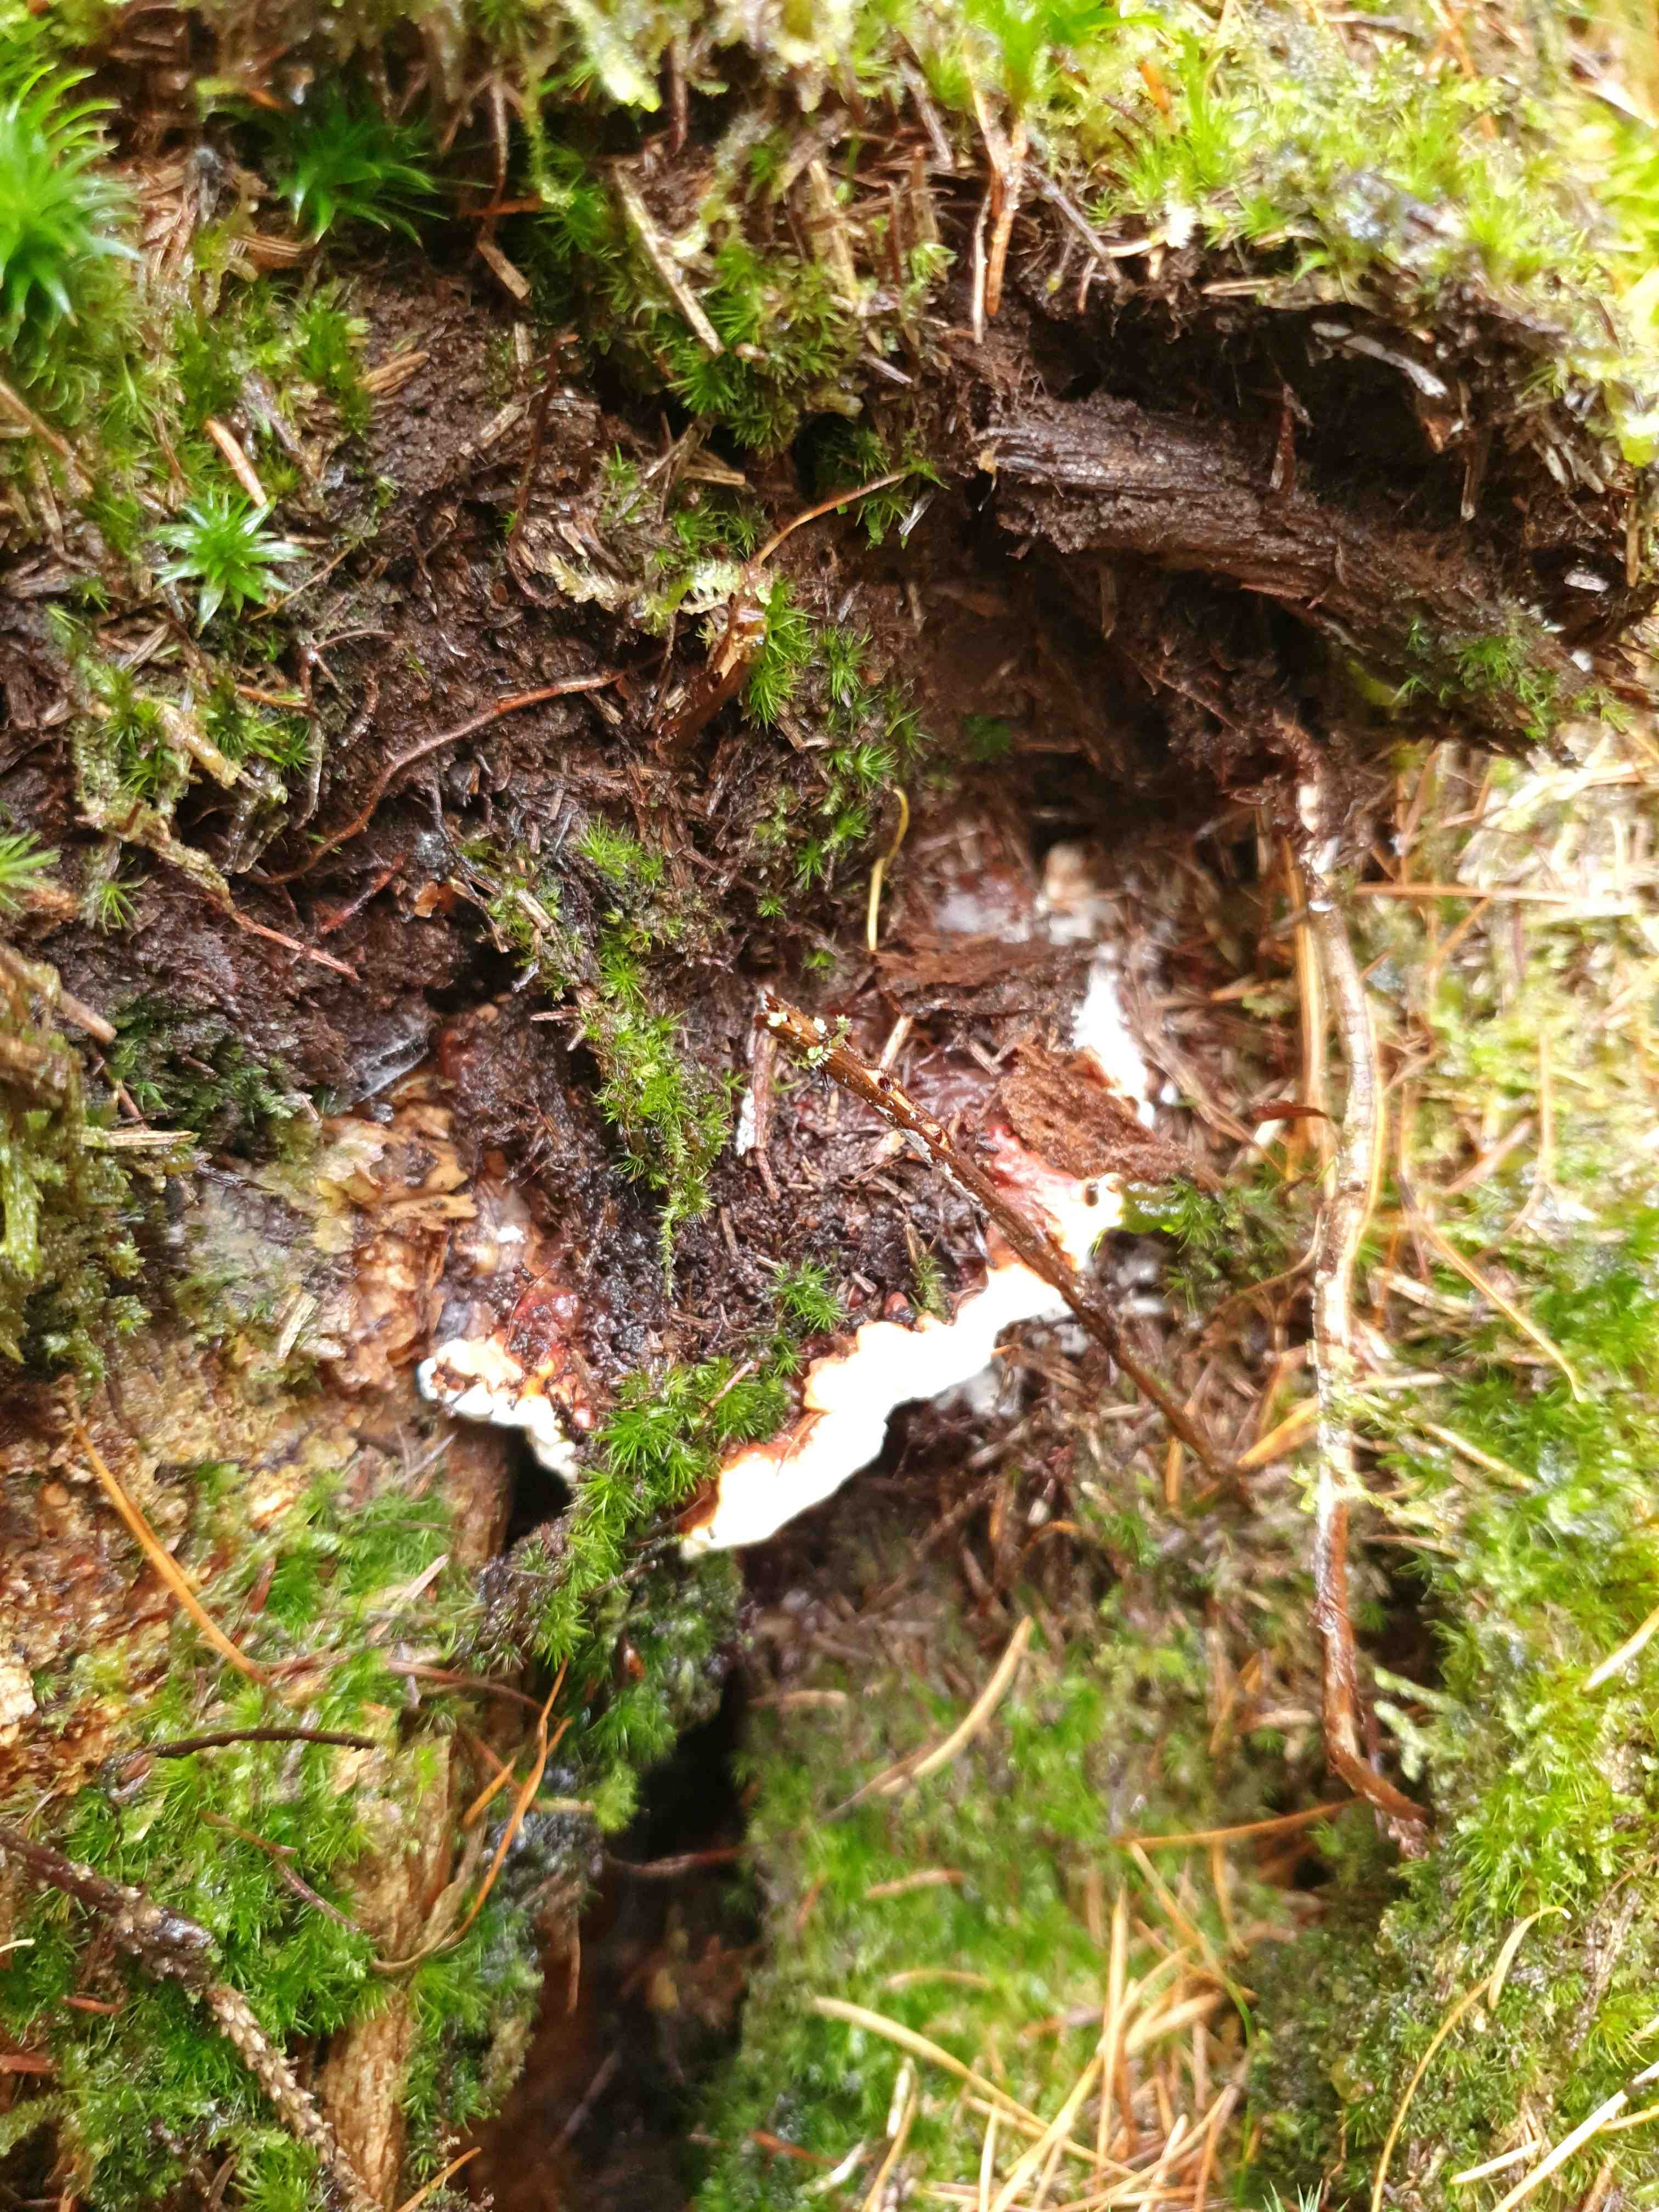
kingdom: Fungi
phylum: Basidiomycota
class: Agaricomycetes
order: Russulales
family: Bondarzewiaceae
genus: Heterobasidion
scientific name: Heterobasidion annosum
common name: almindelig rodfordærver
